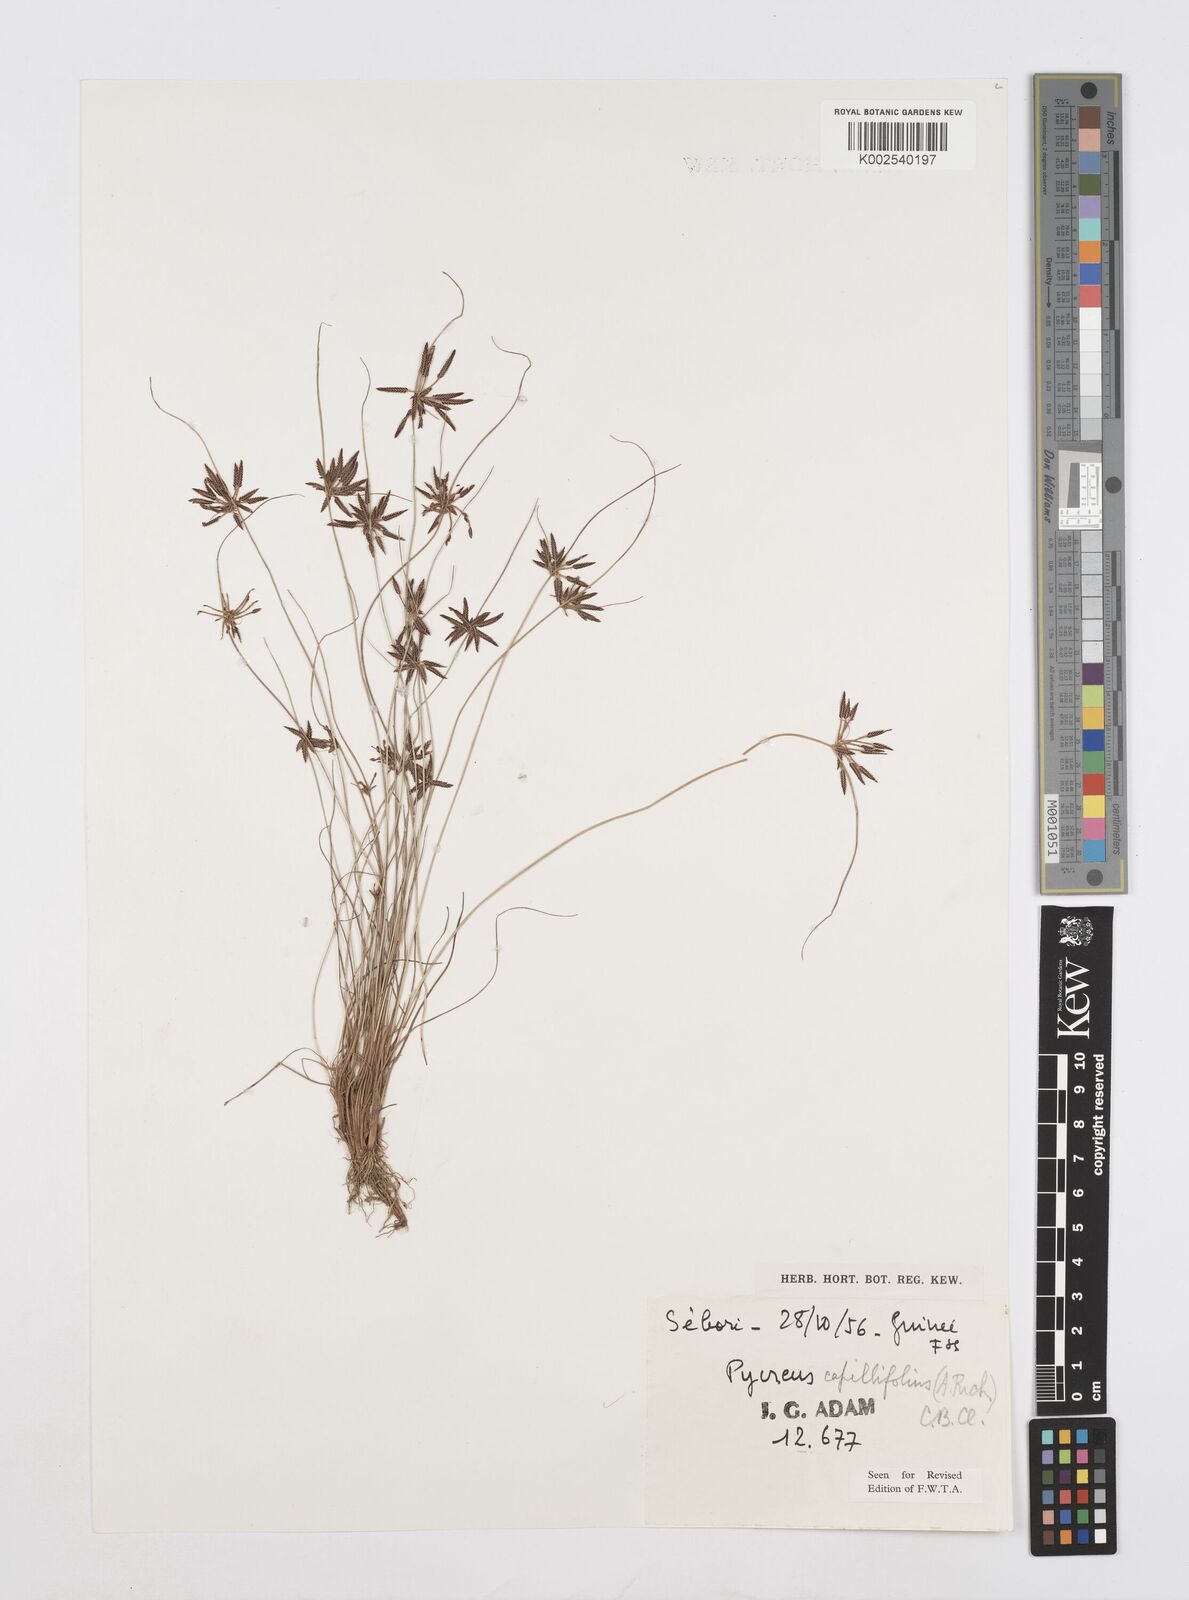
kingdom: Plantae
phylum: Tracheophyta
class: Liliopsida
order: Poales
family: Cyperaceae
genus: Cyperus
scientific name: Cyperus capillifolius
